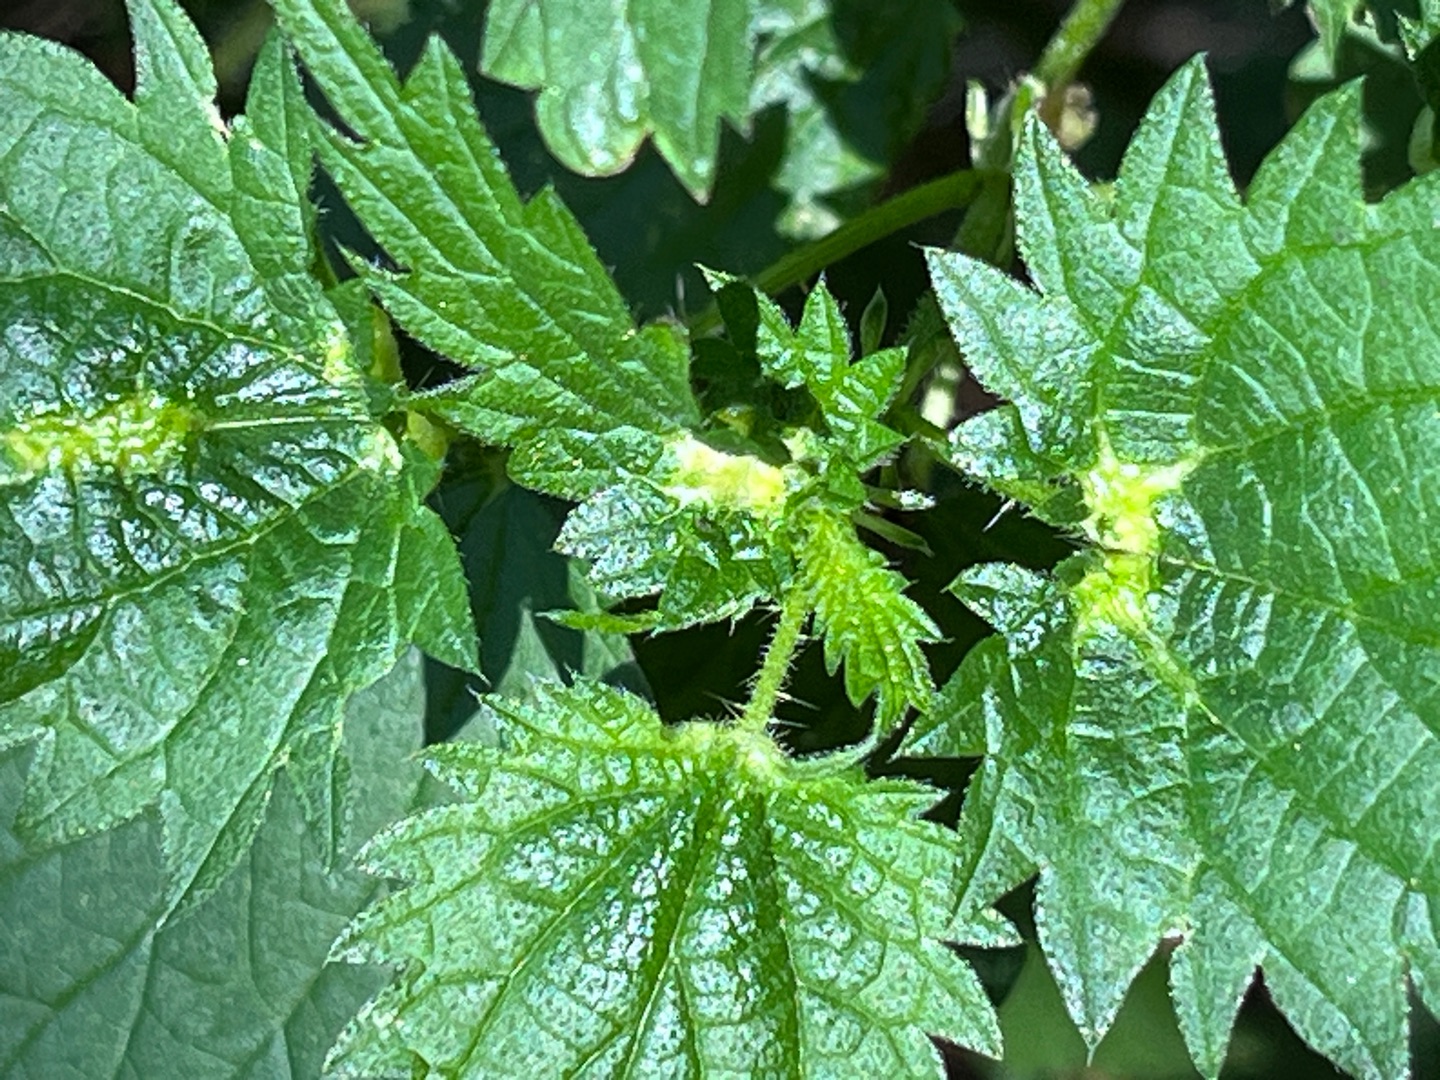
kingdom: Animalia
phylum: Arthropoda
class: Insecta
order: Diptera
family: Cecidomyiidae
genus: Dasineura
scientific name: Dasineura urticae
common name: Nældepunggalmyg
